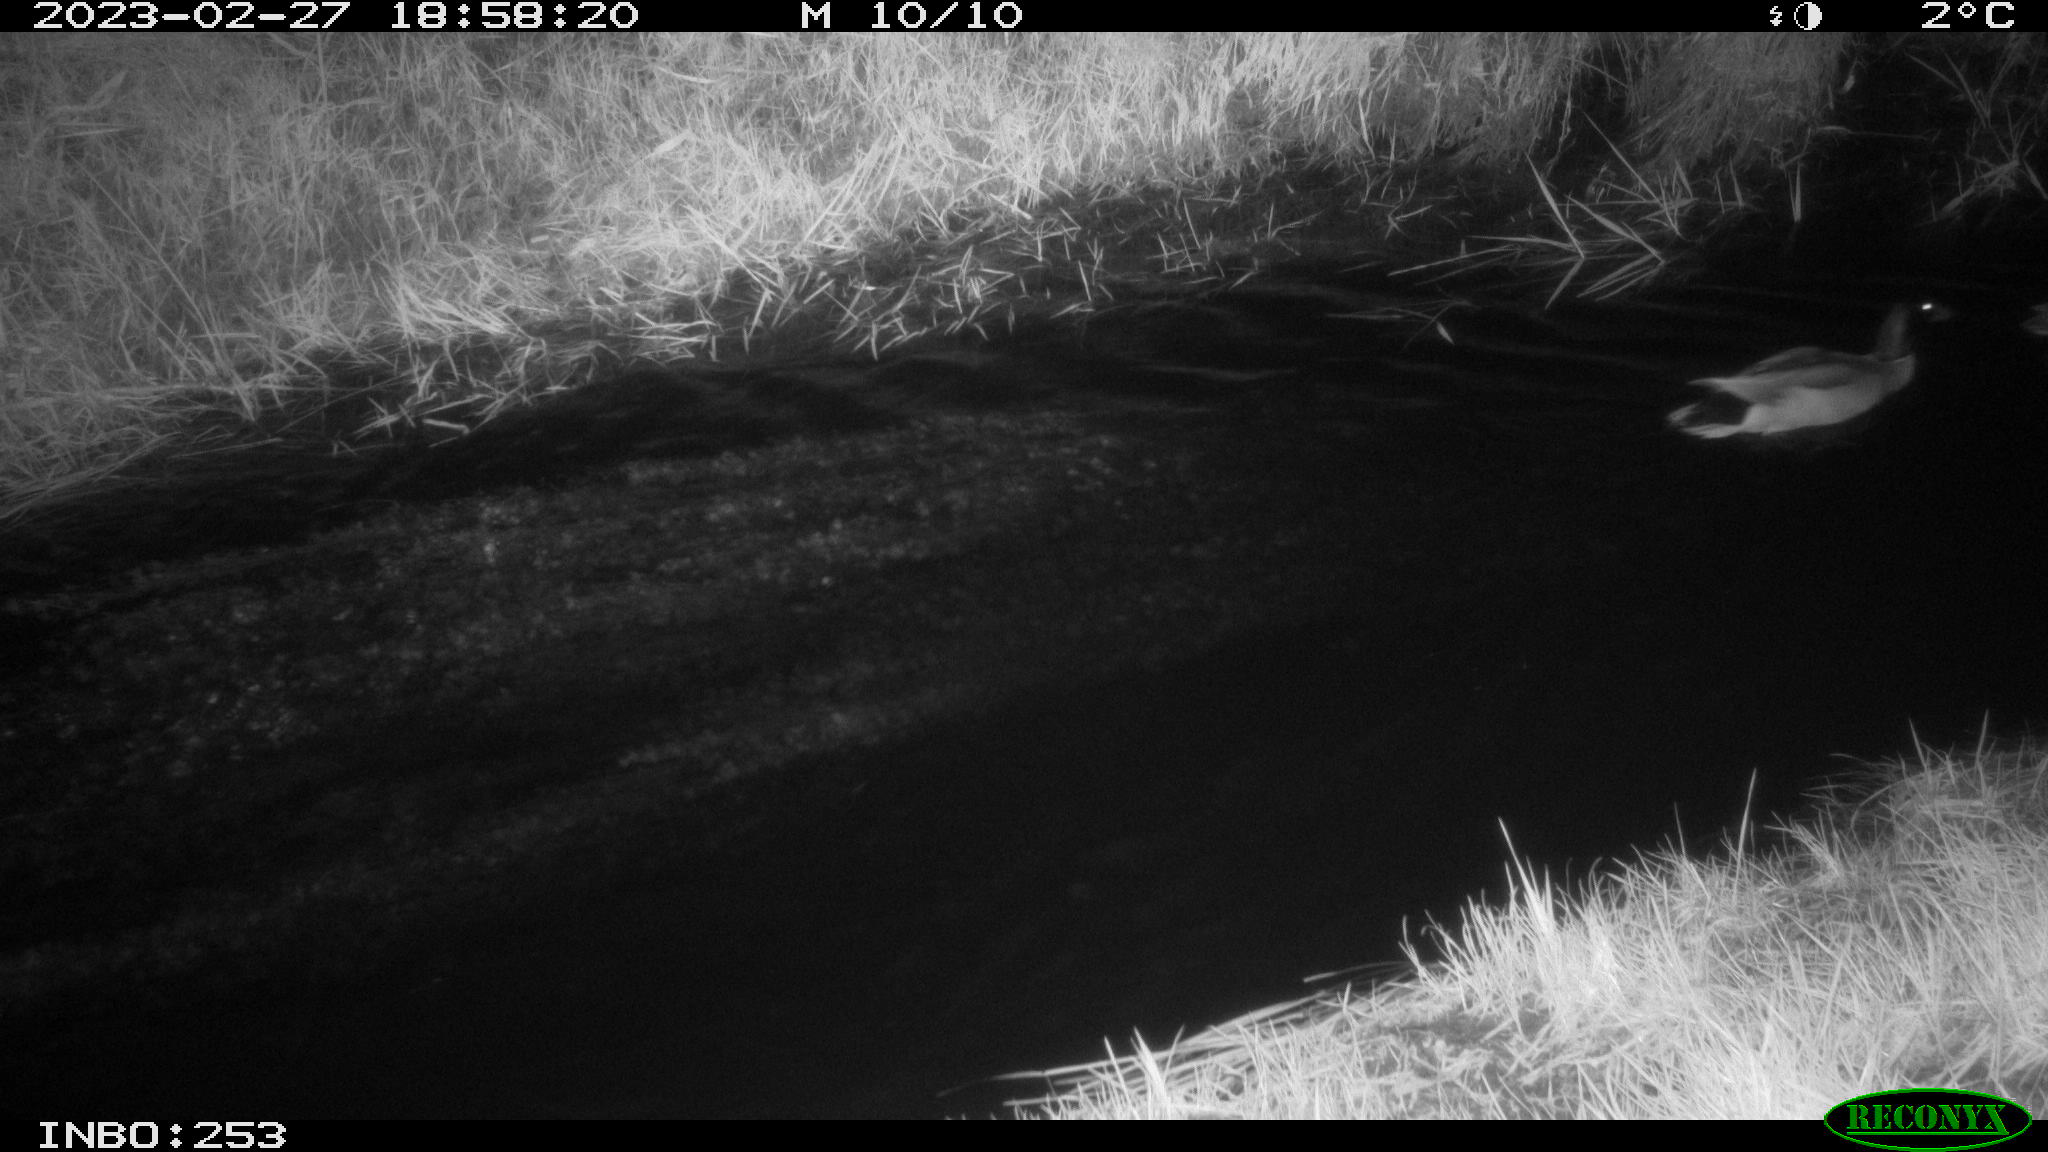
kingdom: Animalia
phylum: Chordata
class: Aves
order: Anseriformes
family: Anatidae
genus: Anas
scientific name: Anas
